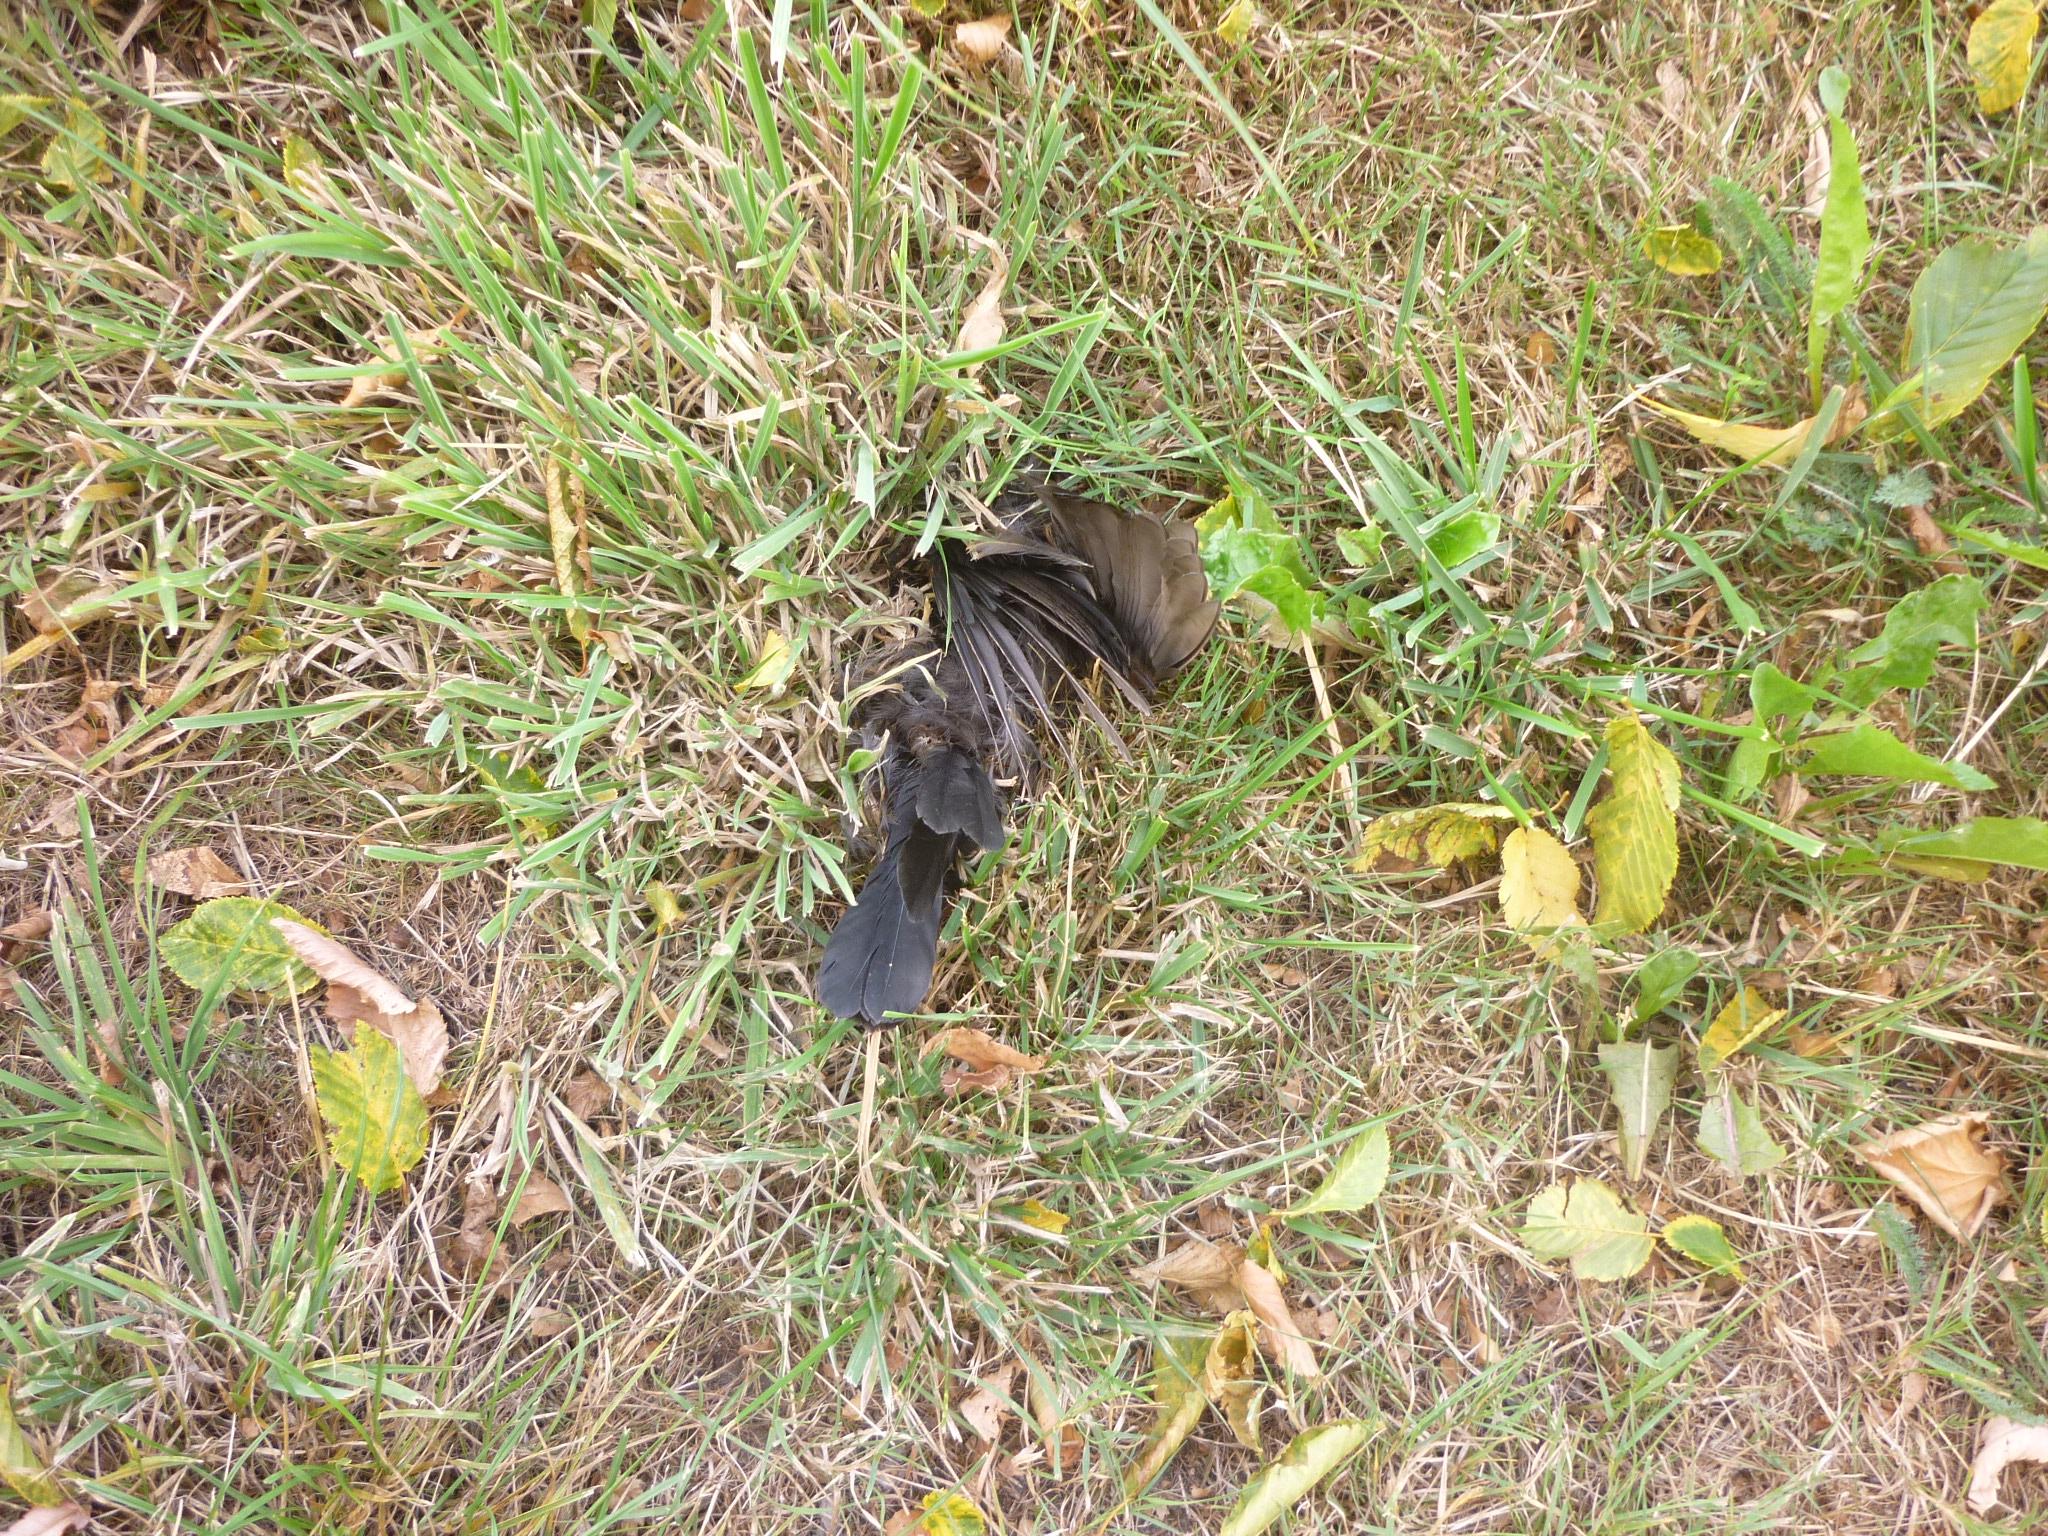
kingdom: Animalia
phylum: Chordata
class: Aves
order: Passeriformes
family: Turdidae
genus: Turdus
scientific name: Turdus merula
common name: Common blackbird
